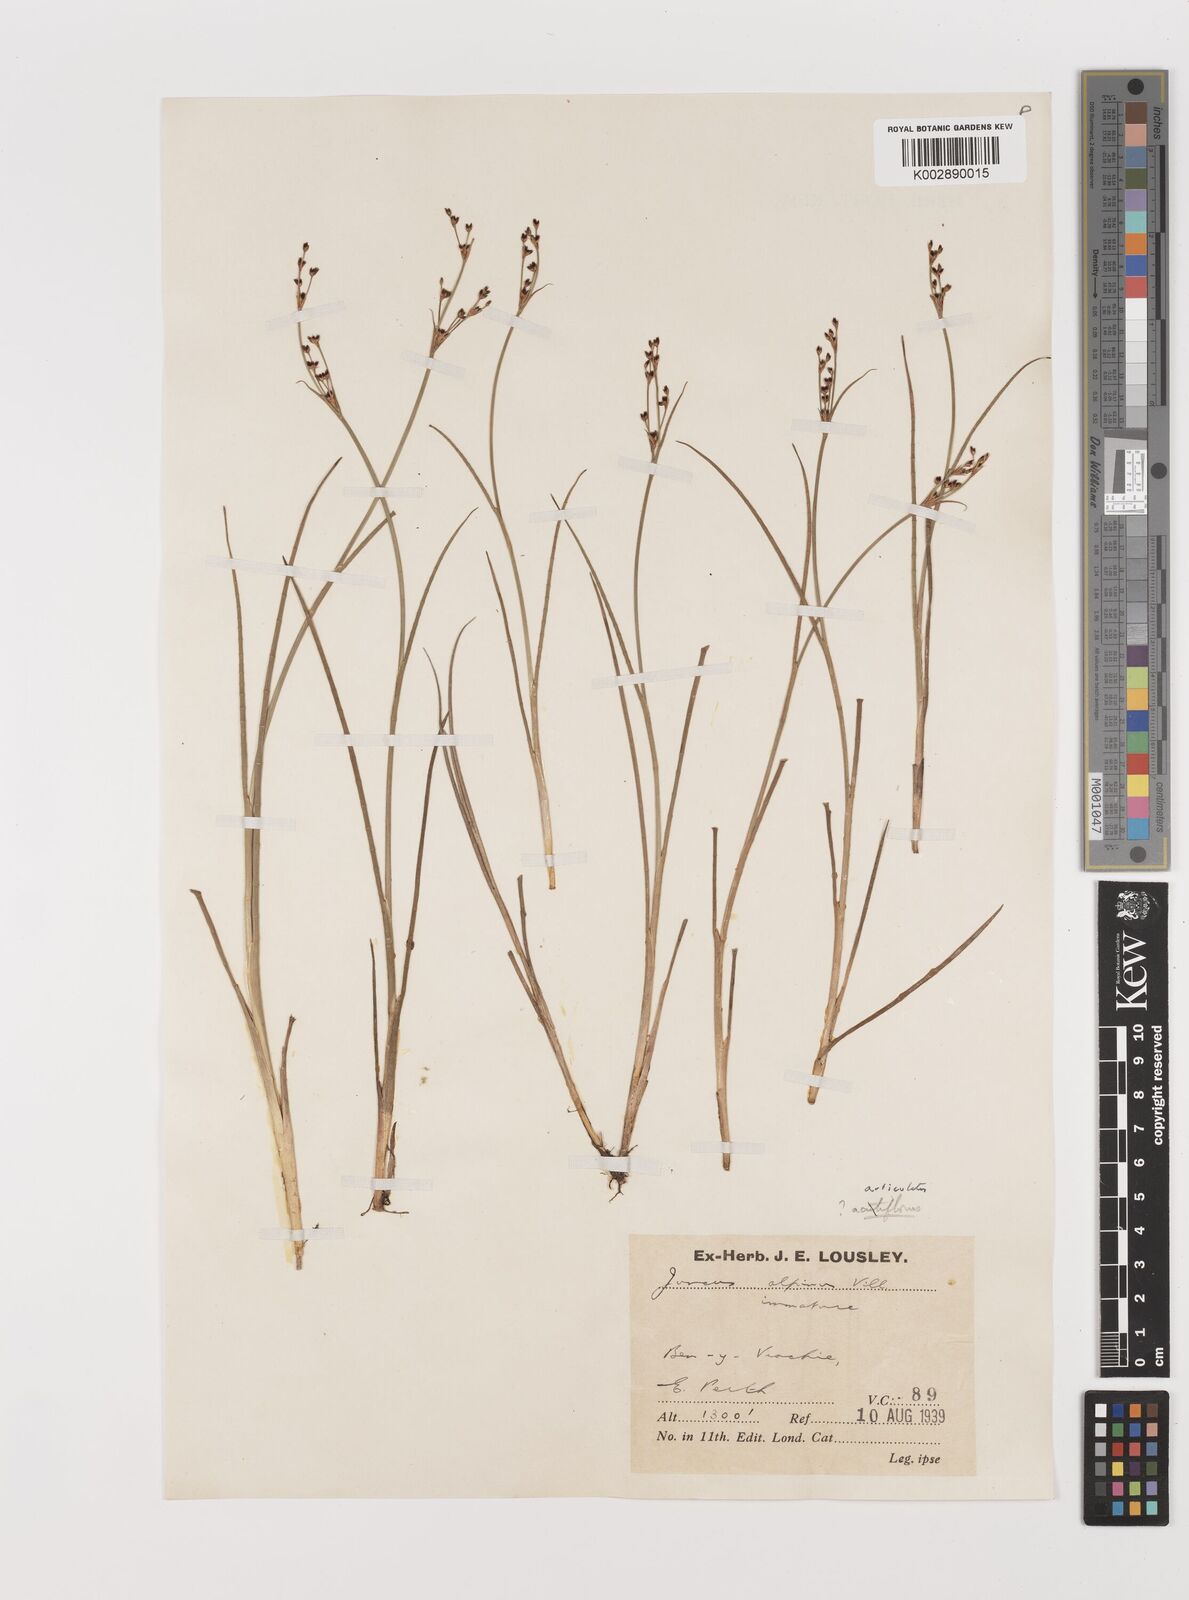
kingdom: Plantae
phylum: Tracheophyta
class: Liliopsida
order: Poales
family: Juncaceae
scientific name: Juncaceae
